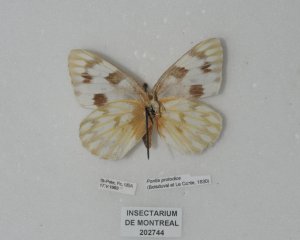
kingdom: Animalia
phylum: Arthropoda
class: Insecta
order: Lepidoptera
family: Pieridae
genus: Pontia
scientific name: Pontia protodice
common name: Checkered White
